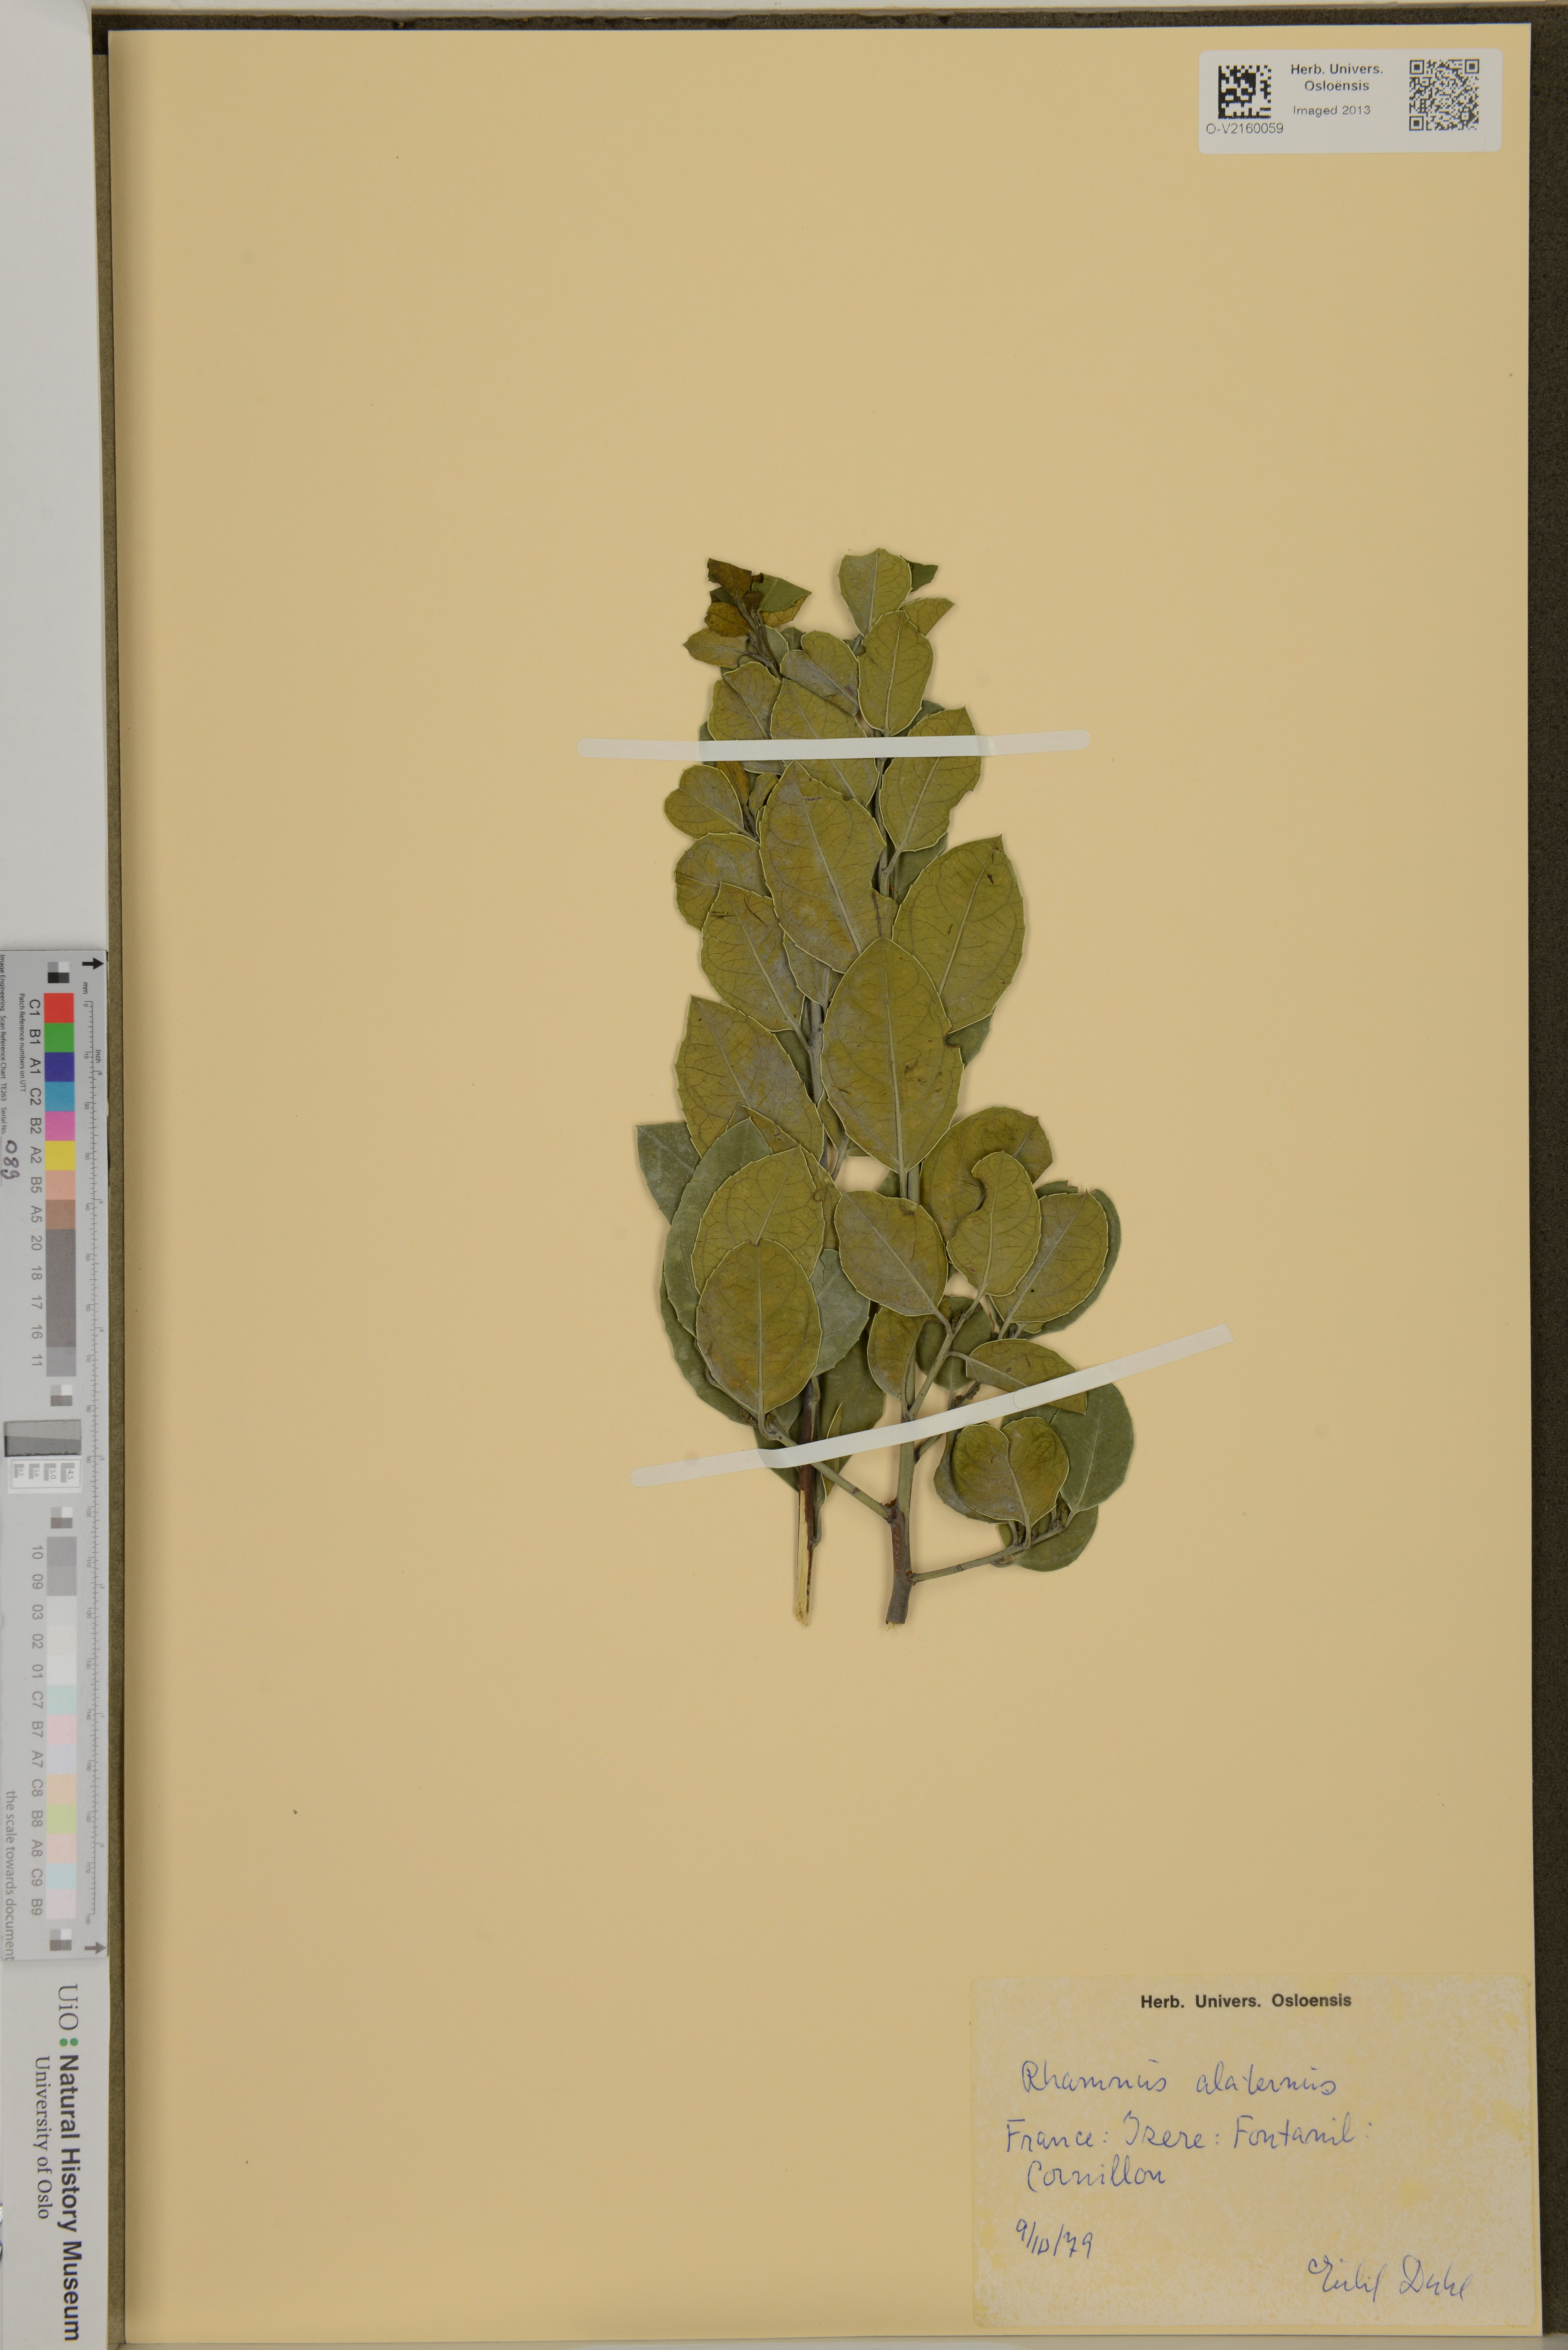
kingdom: Plantae
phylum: Tracheophyta
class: Magnoliopsida
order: Rosales
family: Rhamnaceae
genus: Rhamnus
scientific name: Rhamnus alaternus
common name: Mediterranean buckthorn
